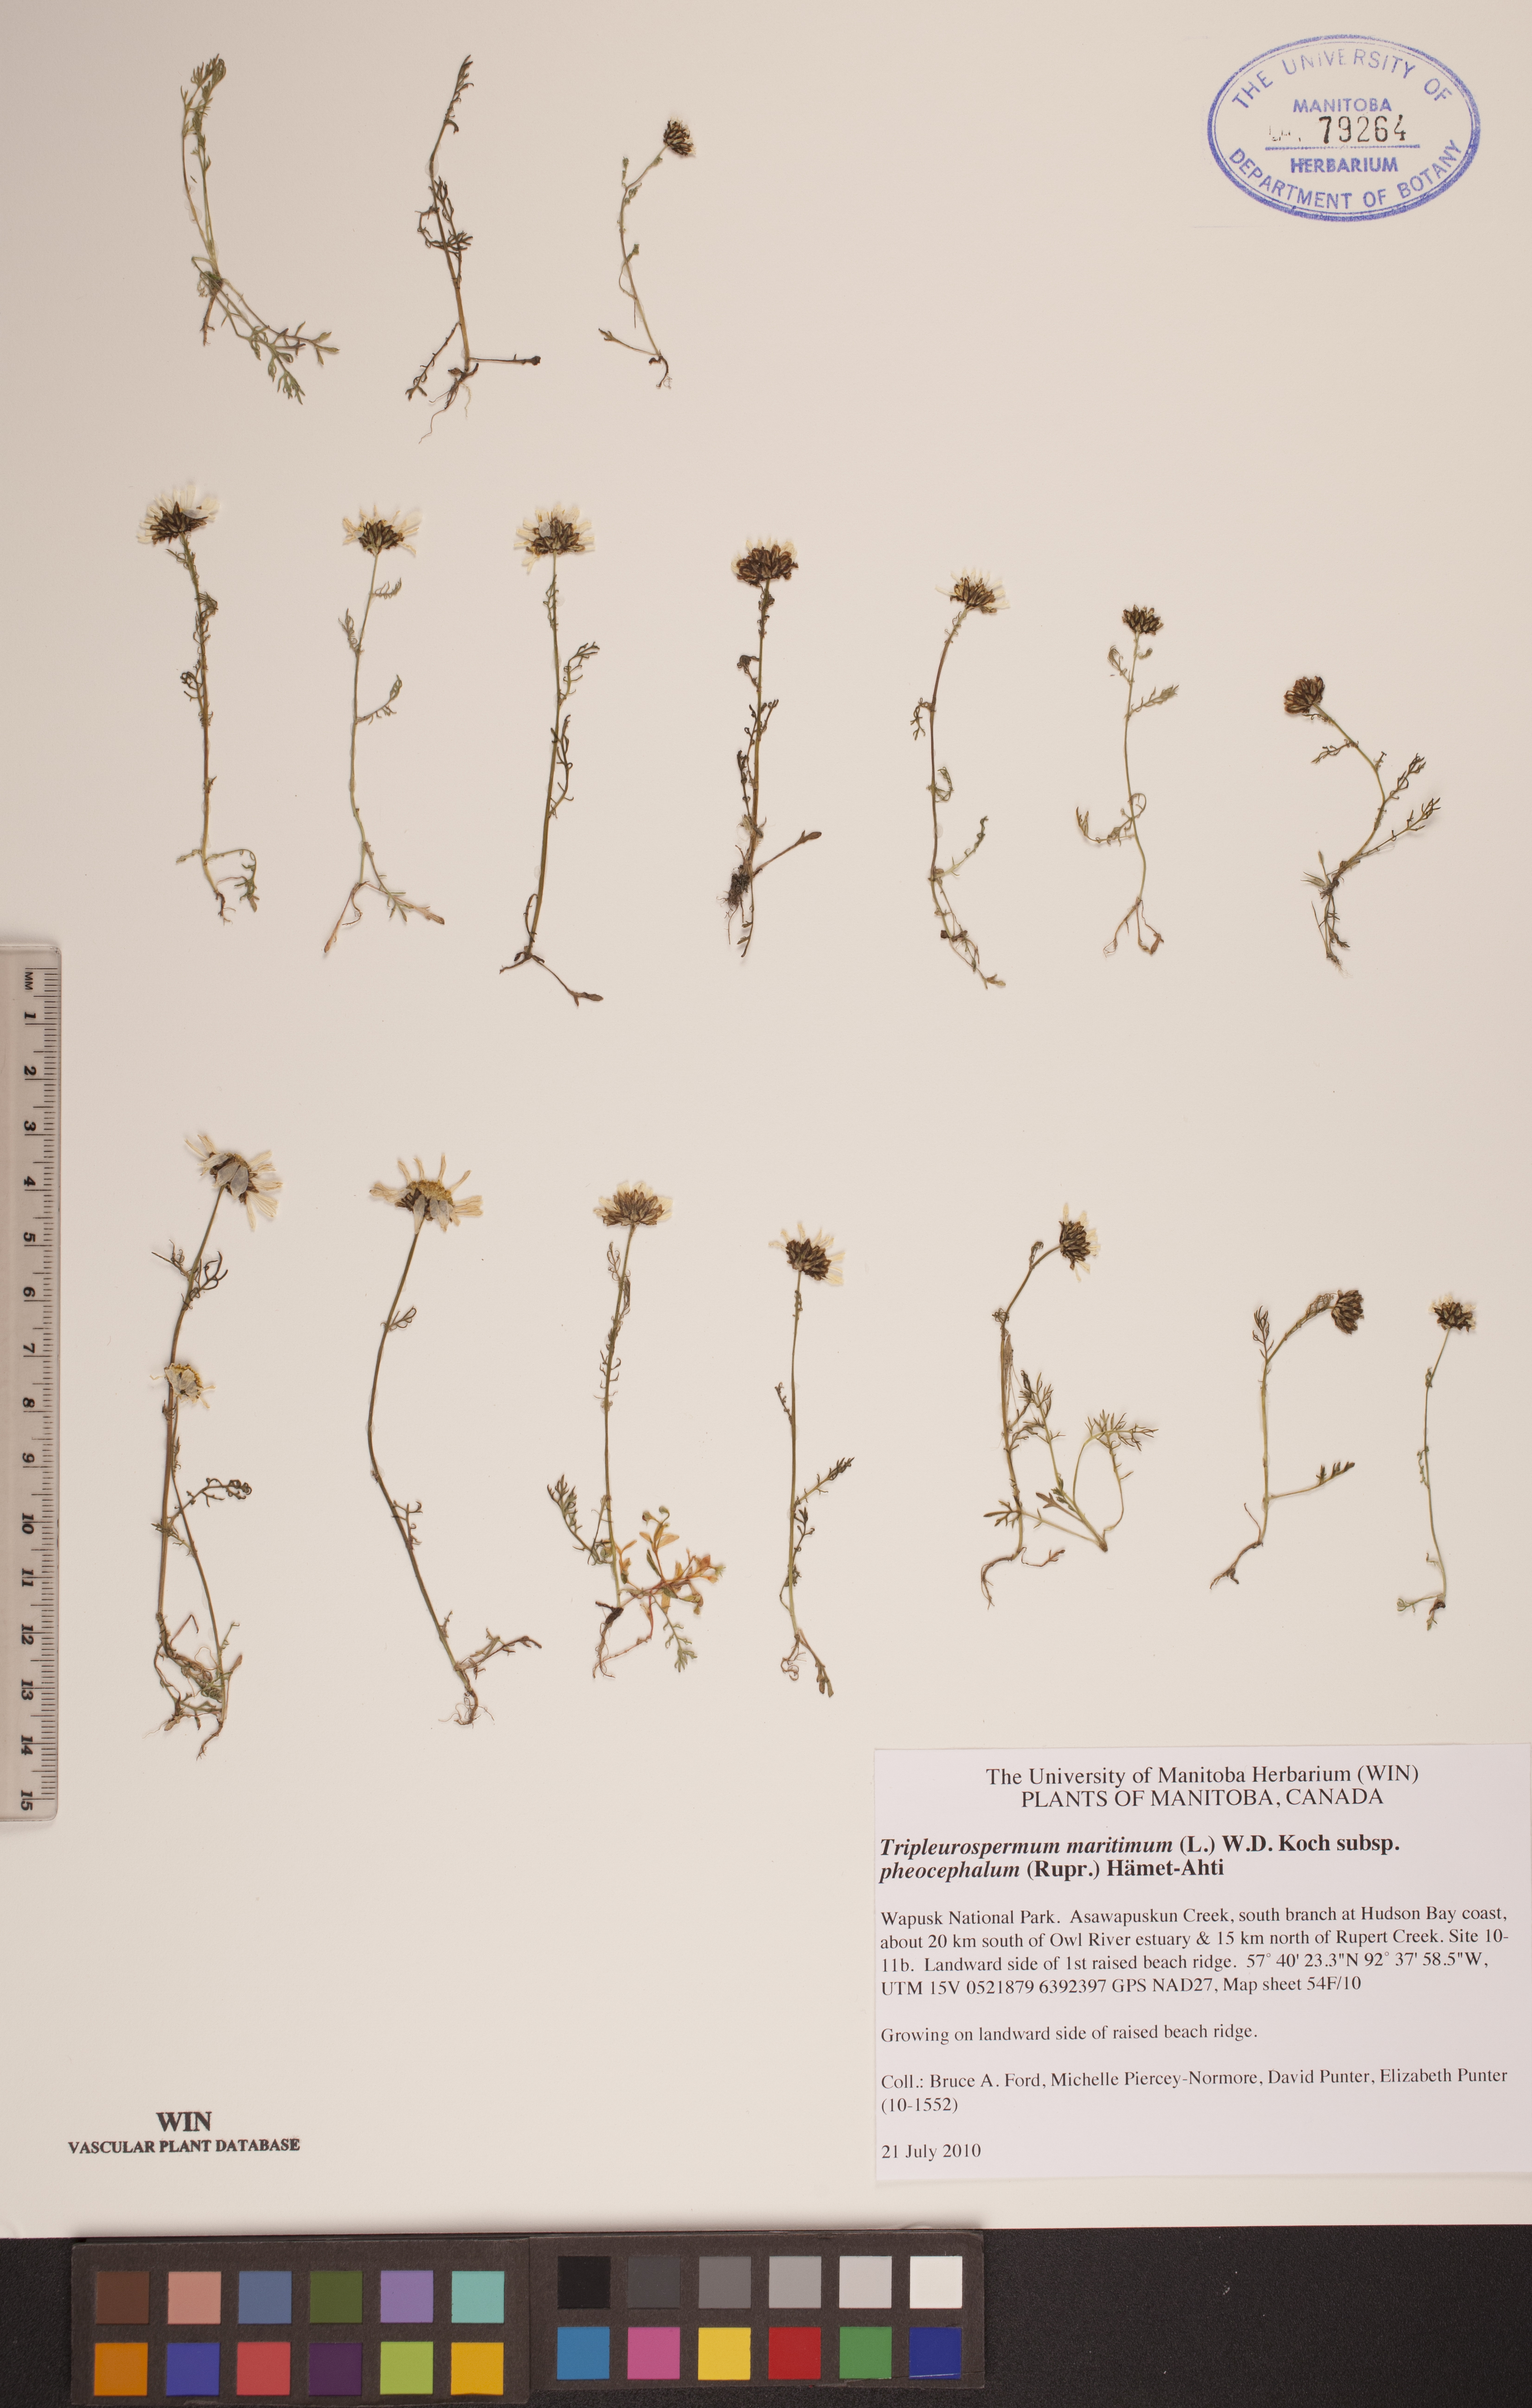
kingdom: Plantae
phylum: Tracheophyta
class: Magnoliopsida
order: Asterales
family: Asteraceae
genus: Tripleurospermum
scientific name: Tripleurospermum hookeri
